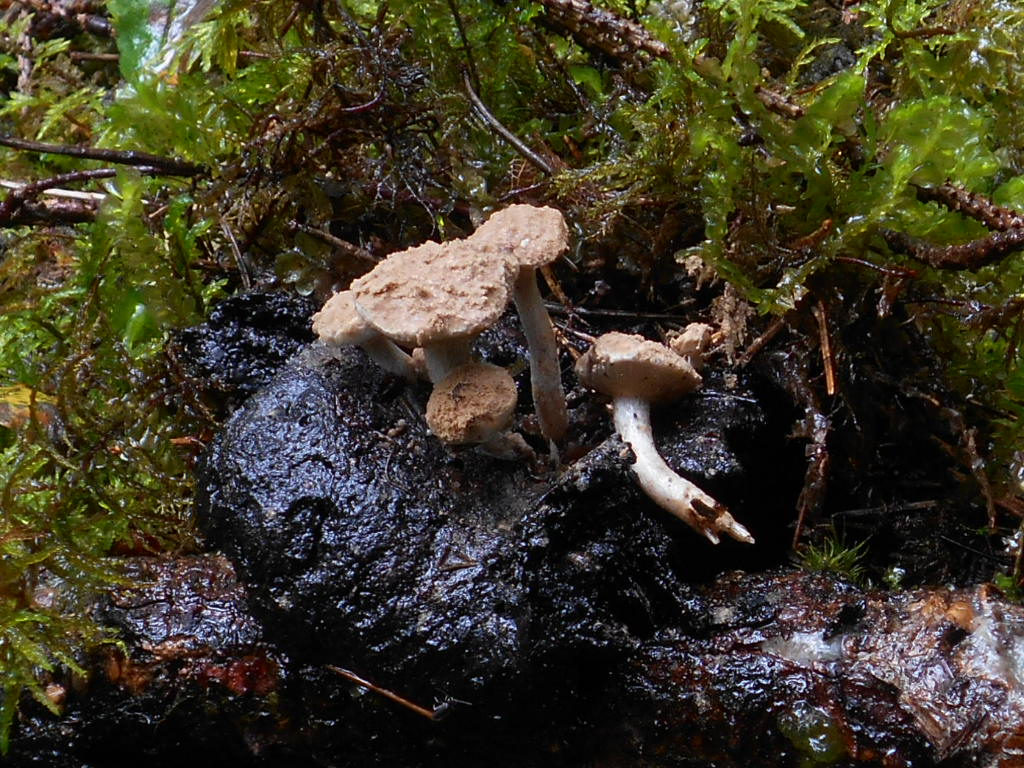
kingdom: Fungi
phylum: Basidiomycota
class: Agaricomycetes
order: Agaricales
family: Lyophyllaceae
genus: Asterophora
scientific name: Asterophora lycoperdoides
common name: Pick-a-back toadstool
